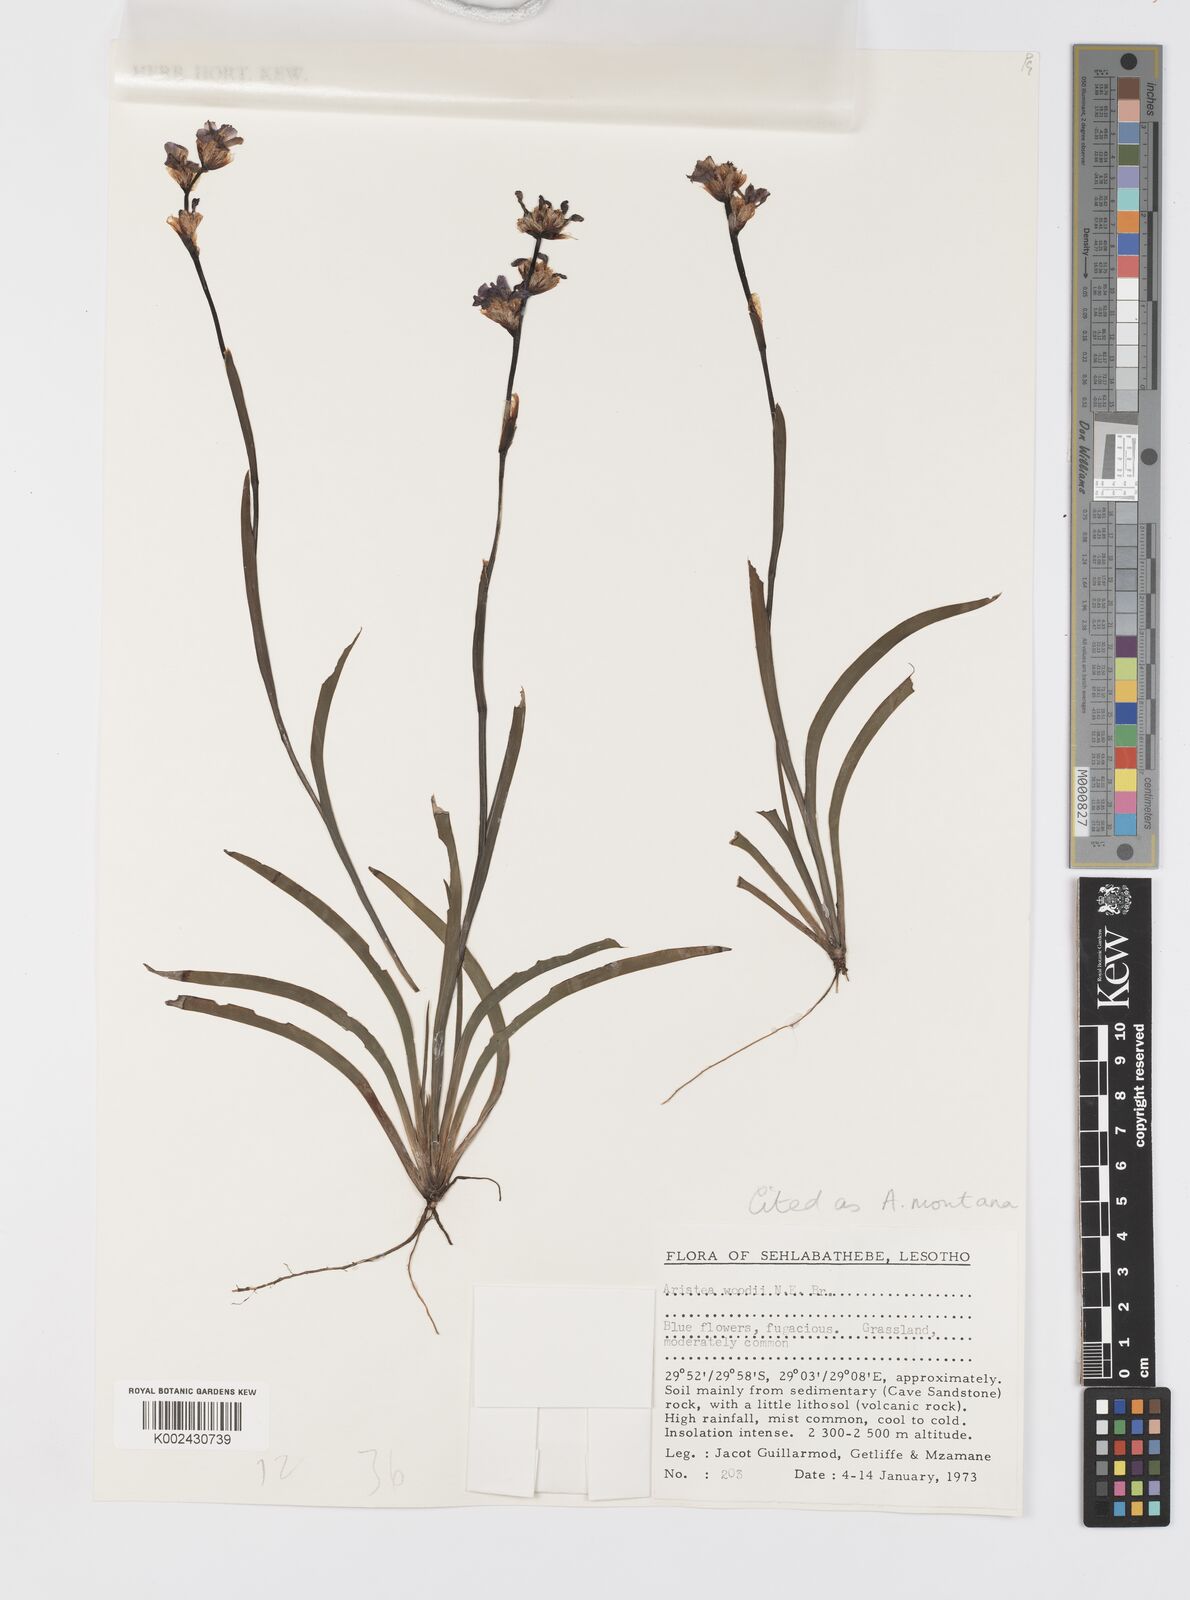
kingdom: Plantae
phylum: Tracheophyta
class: Liliopsida
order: Asparagales
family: Iridaceae
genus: Aristea
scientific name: Aristea montana
